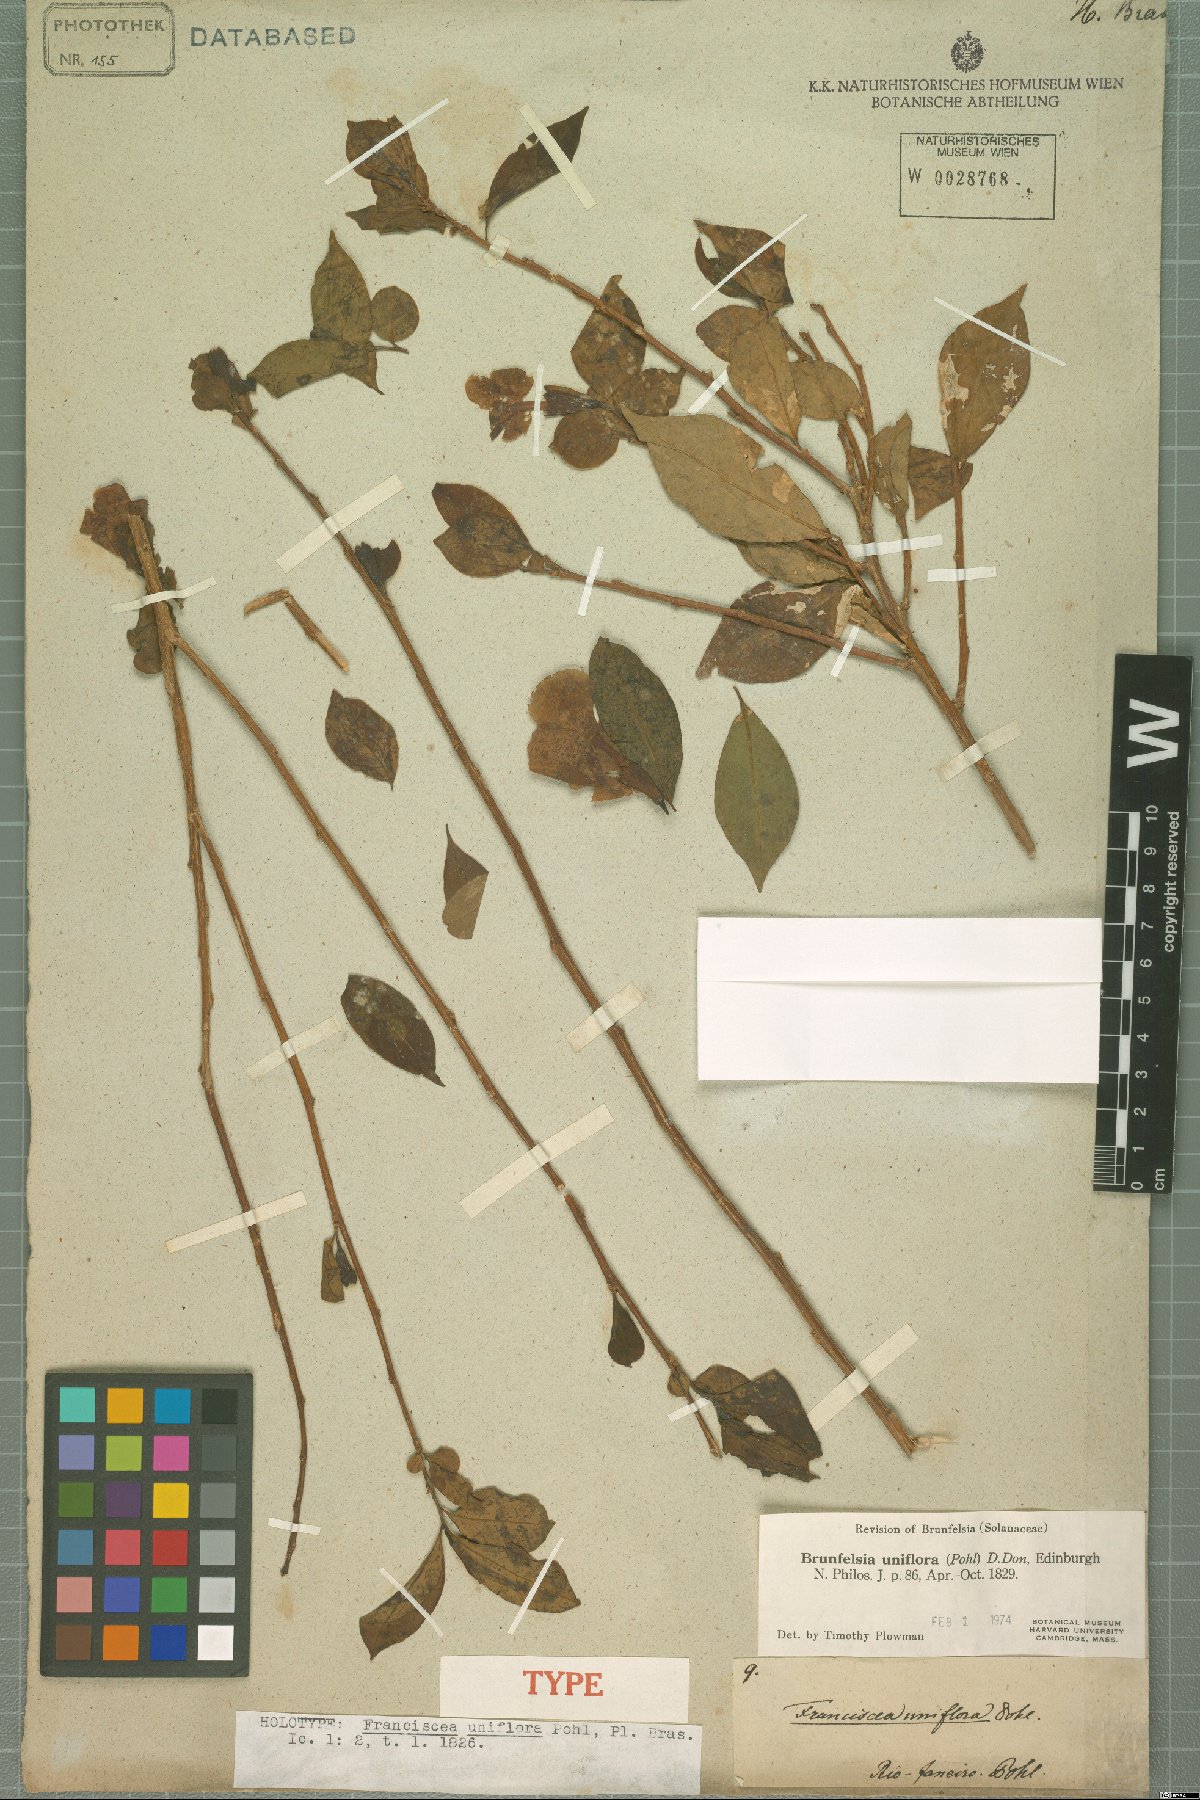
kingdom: Plantae
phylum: Tracheophyta
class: Magnoliopsida
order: Solanales
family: Solanaceae
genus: Brunfelsia
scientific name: Brunfelsia uniflora
